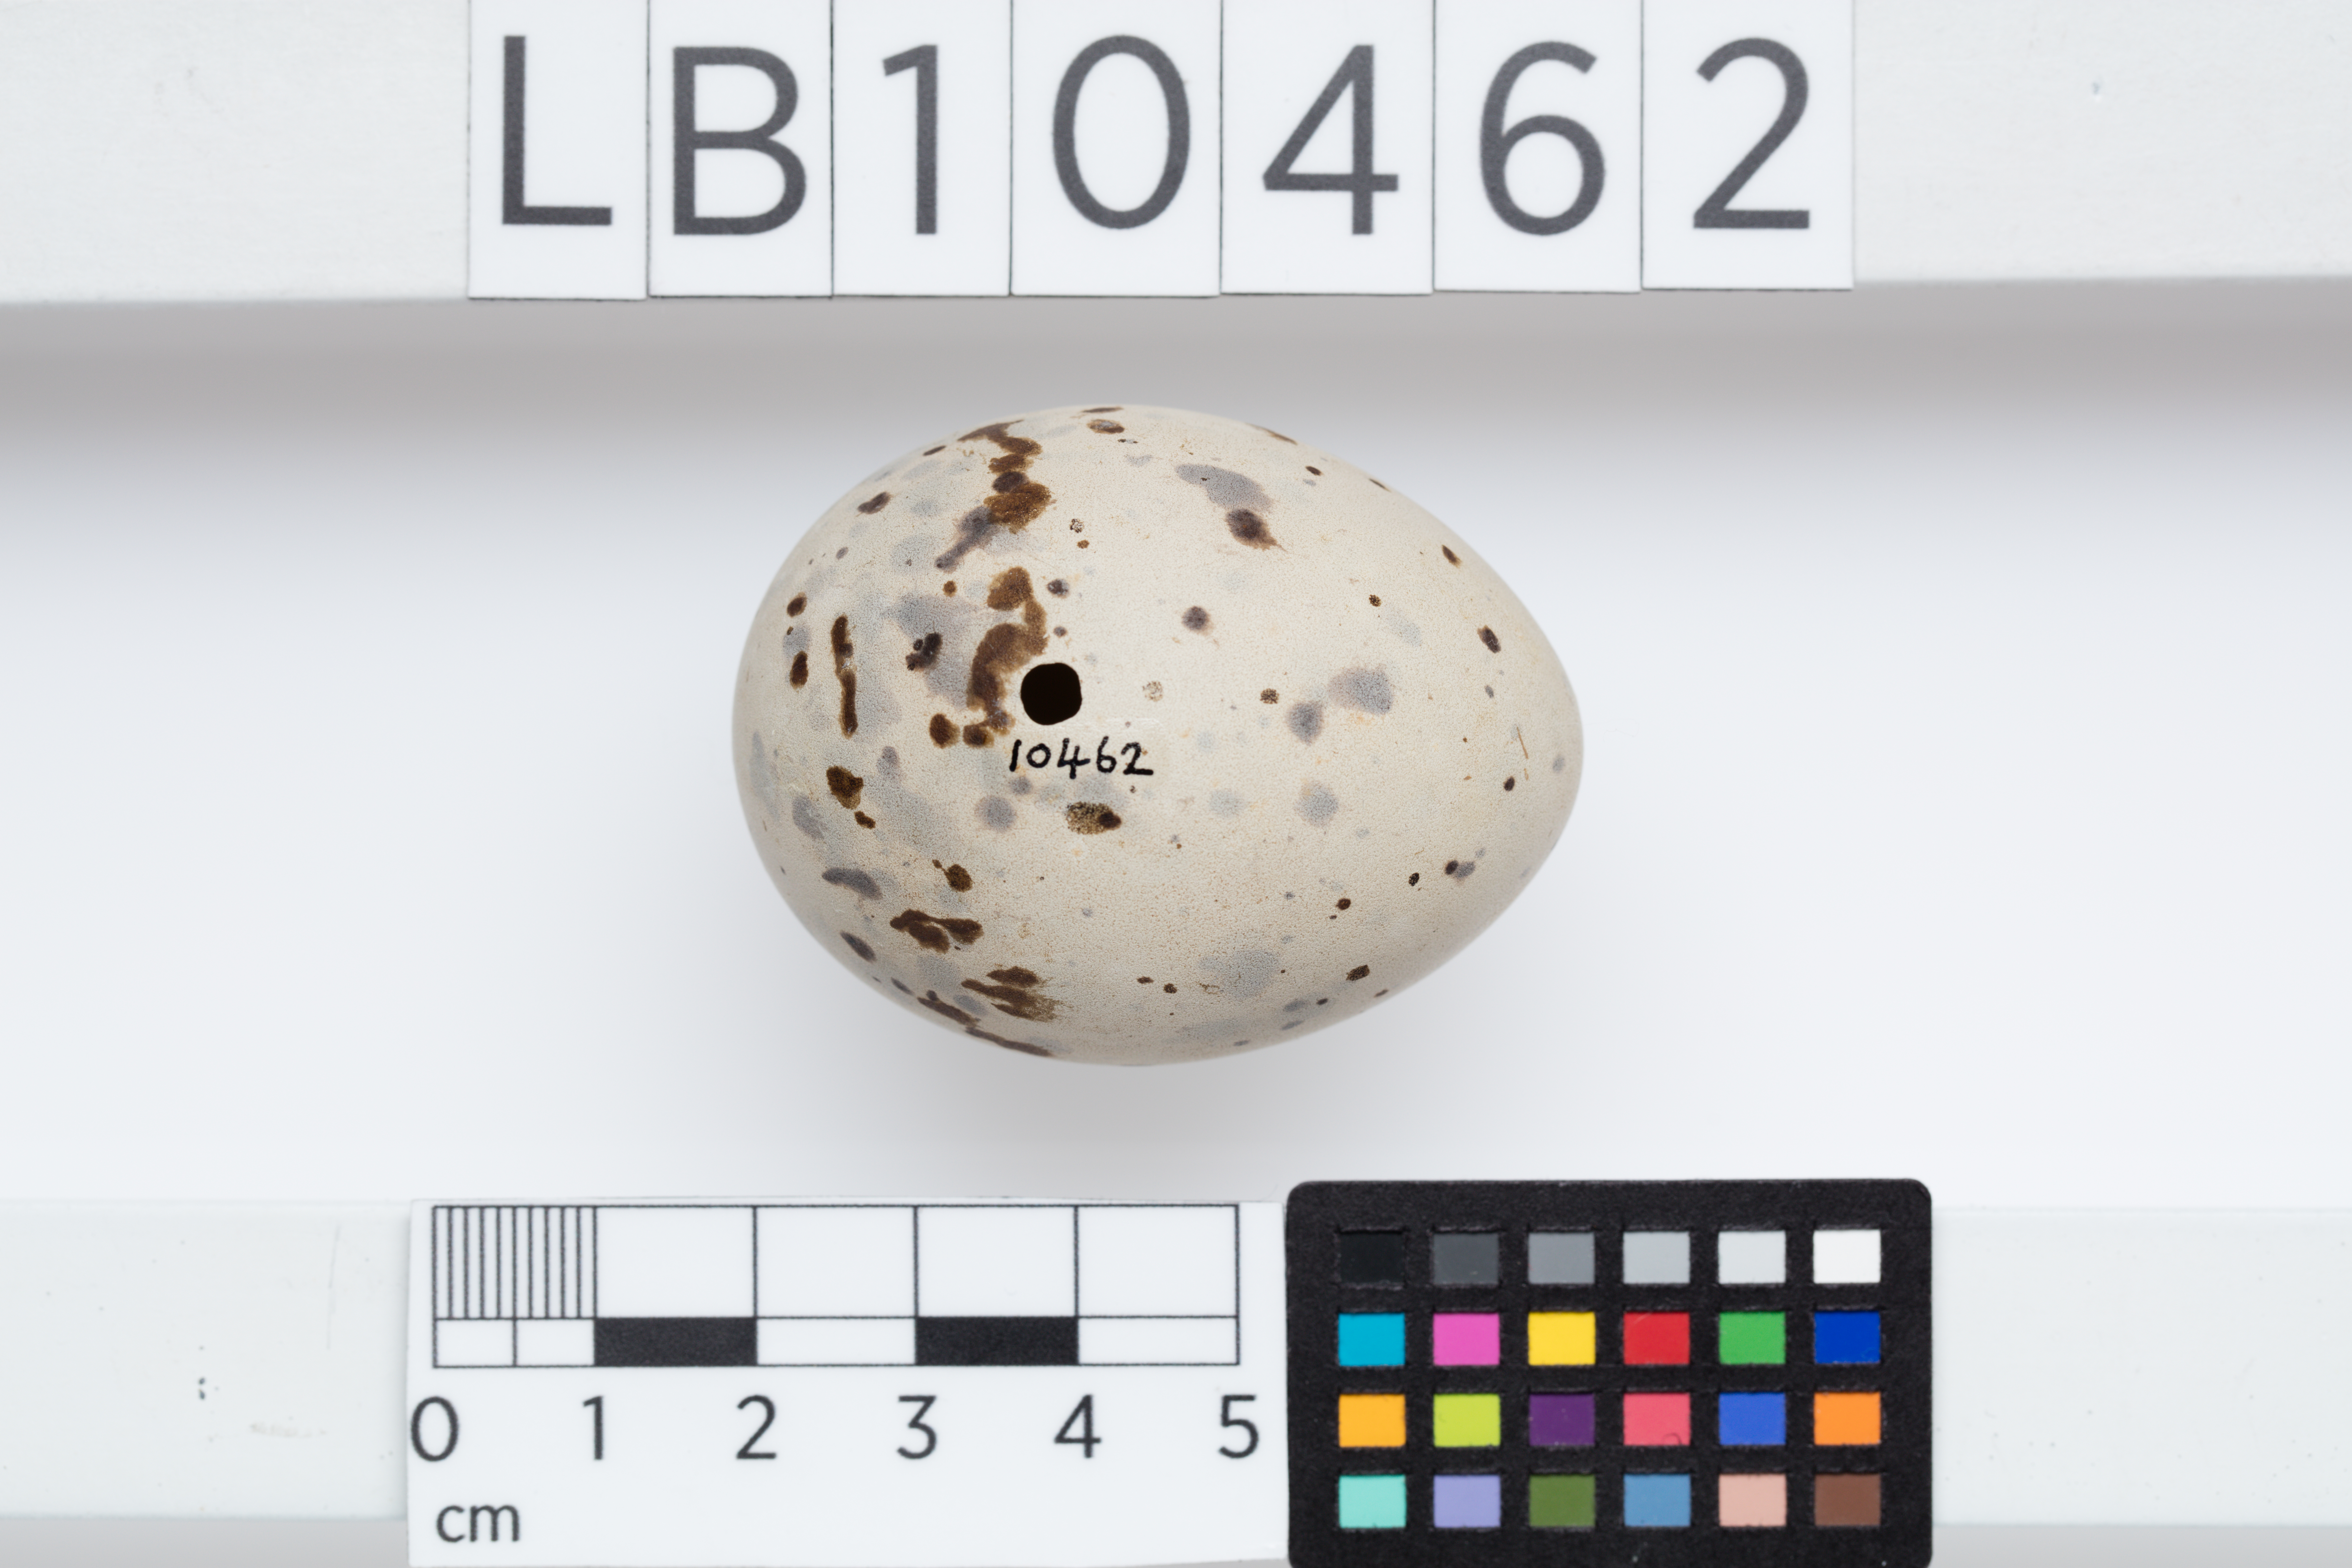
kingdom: Animalia
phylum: Chordata
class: Aves
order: Charadriiformes
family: Laridae
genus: Rissa
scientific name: Rissa tridactyla
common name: Black-legged kittiwake
